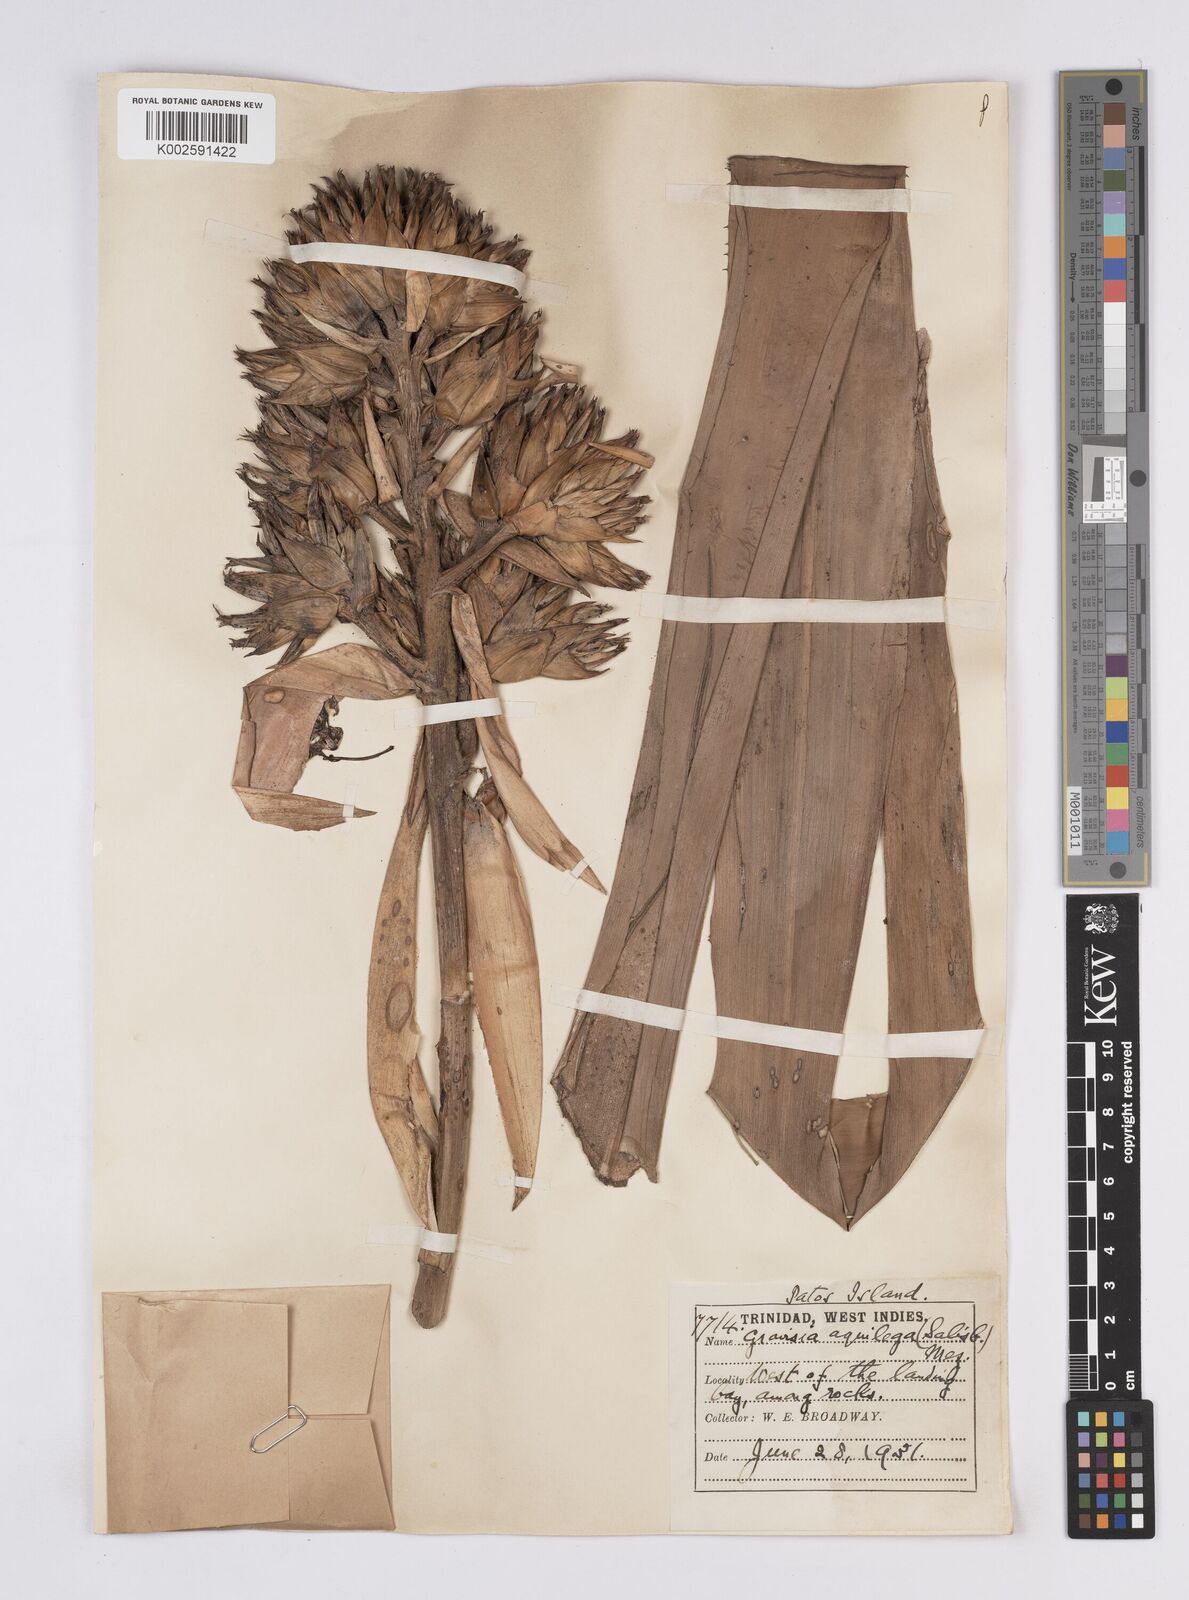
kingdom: Plantae
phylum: Tracheophyta
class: Liliopsida
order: Poales
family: Bromeliaceae
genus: Aechmea
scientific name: Aechmea aquilega
